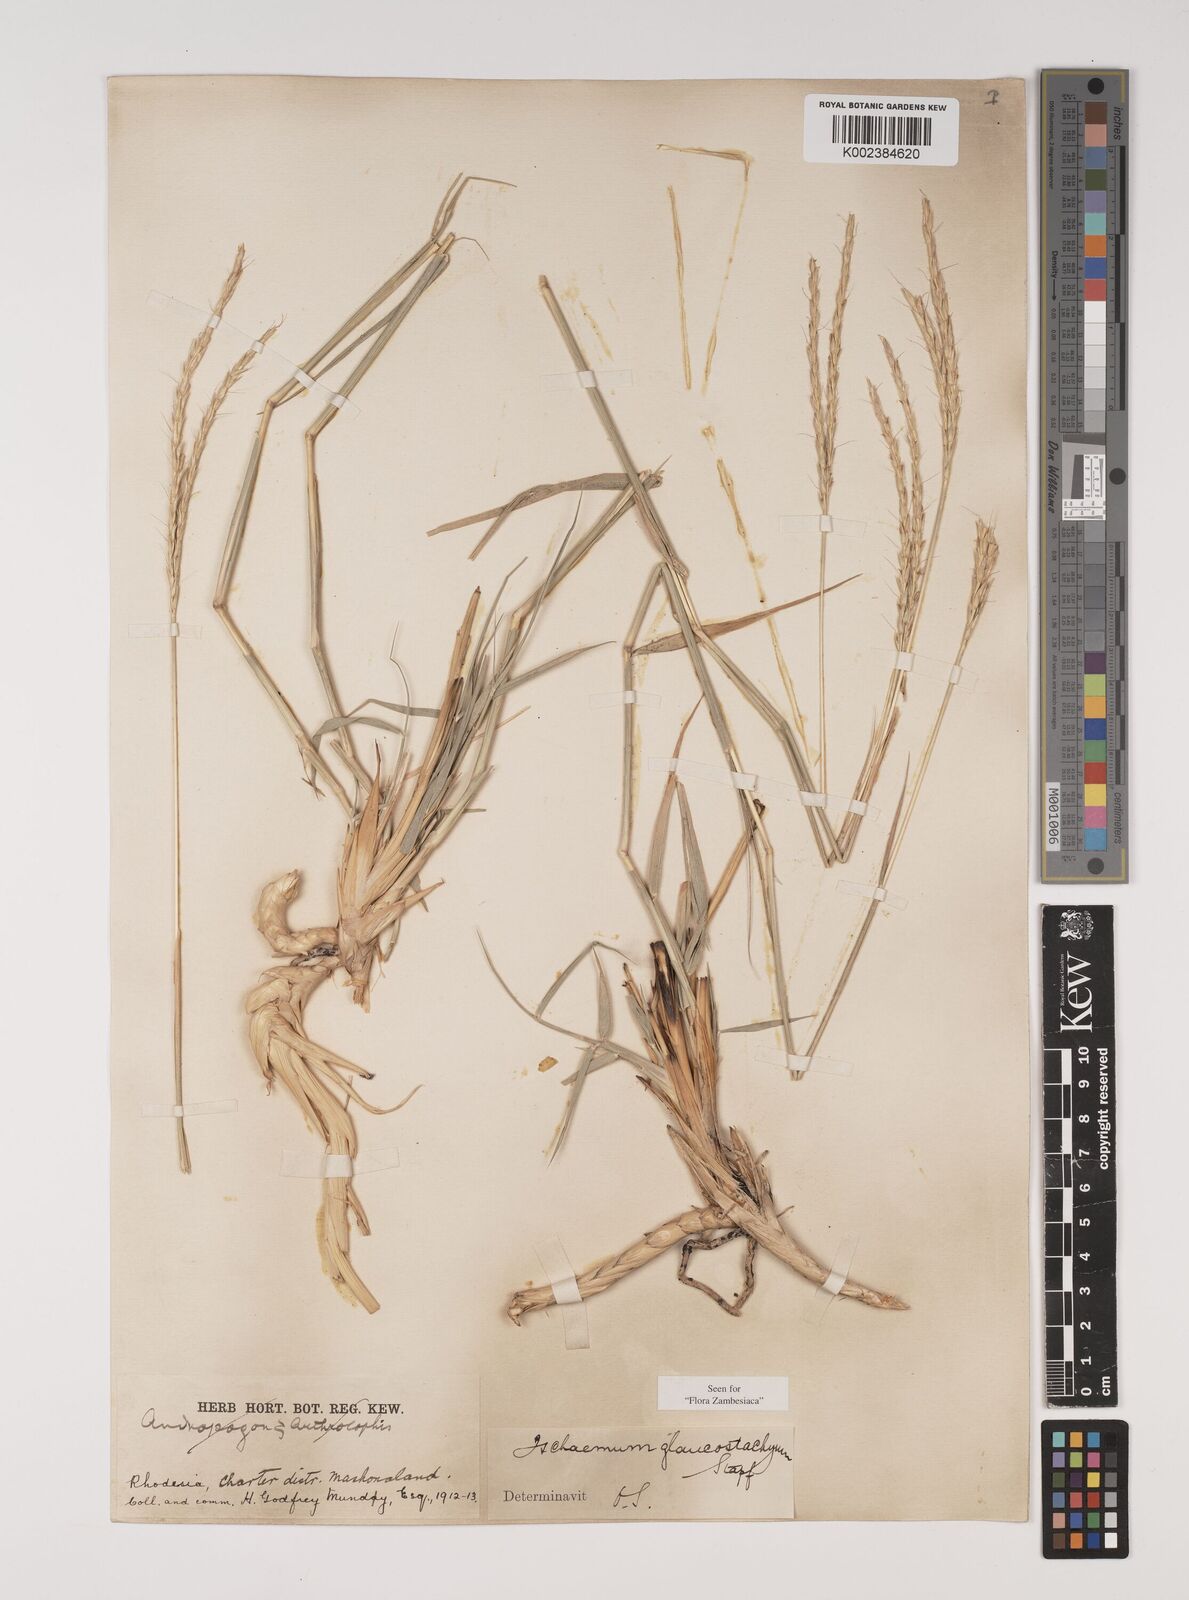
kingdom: Plantae
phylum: Tracheophyta
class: Liliopsida
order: Poales
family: Poaceae
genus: Ischaemum
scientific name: Ischaemum afrum
